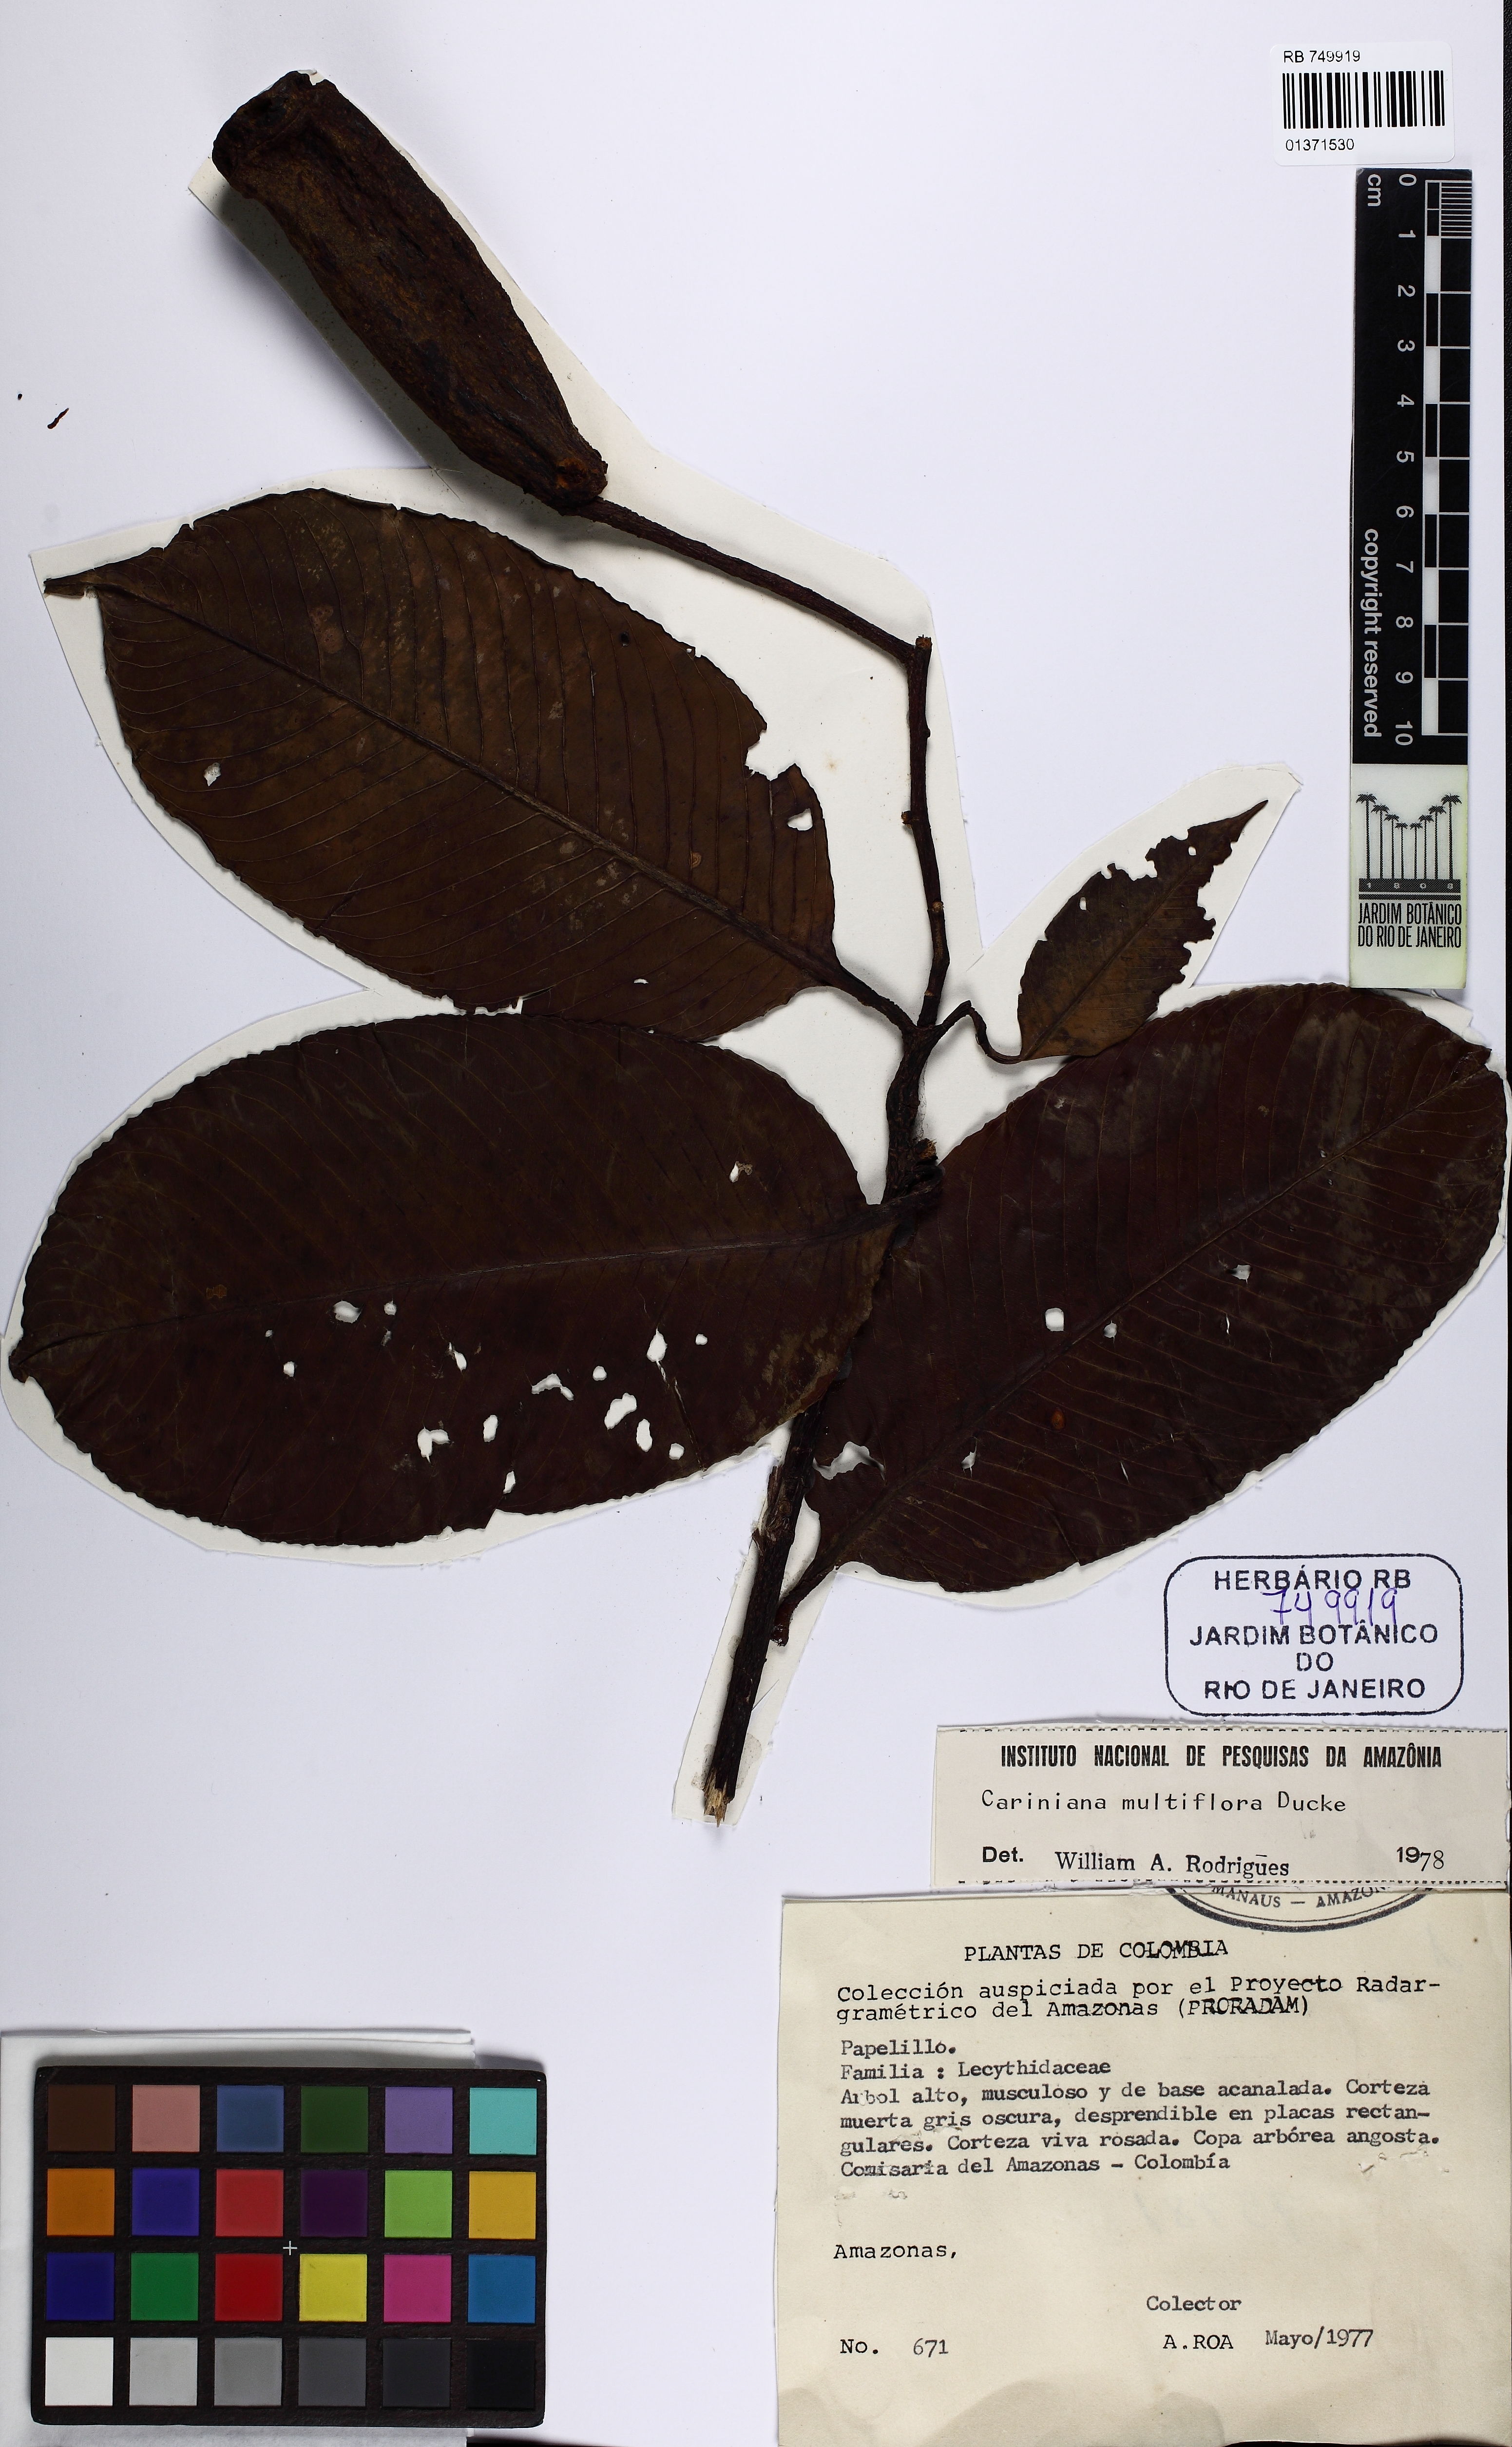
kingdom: Plantae
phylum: Tracheophyta
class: Magnoliopsida
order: Ericales
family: Lecythidaceae
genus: Allantoma
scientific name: Allantoma pluriflora
